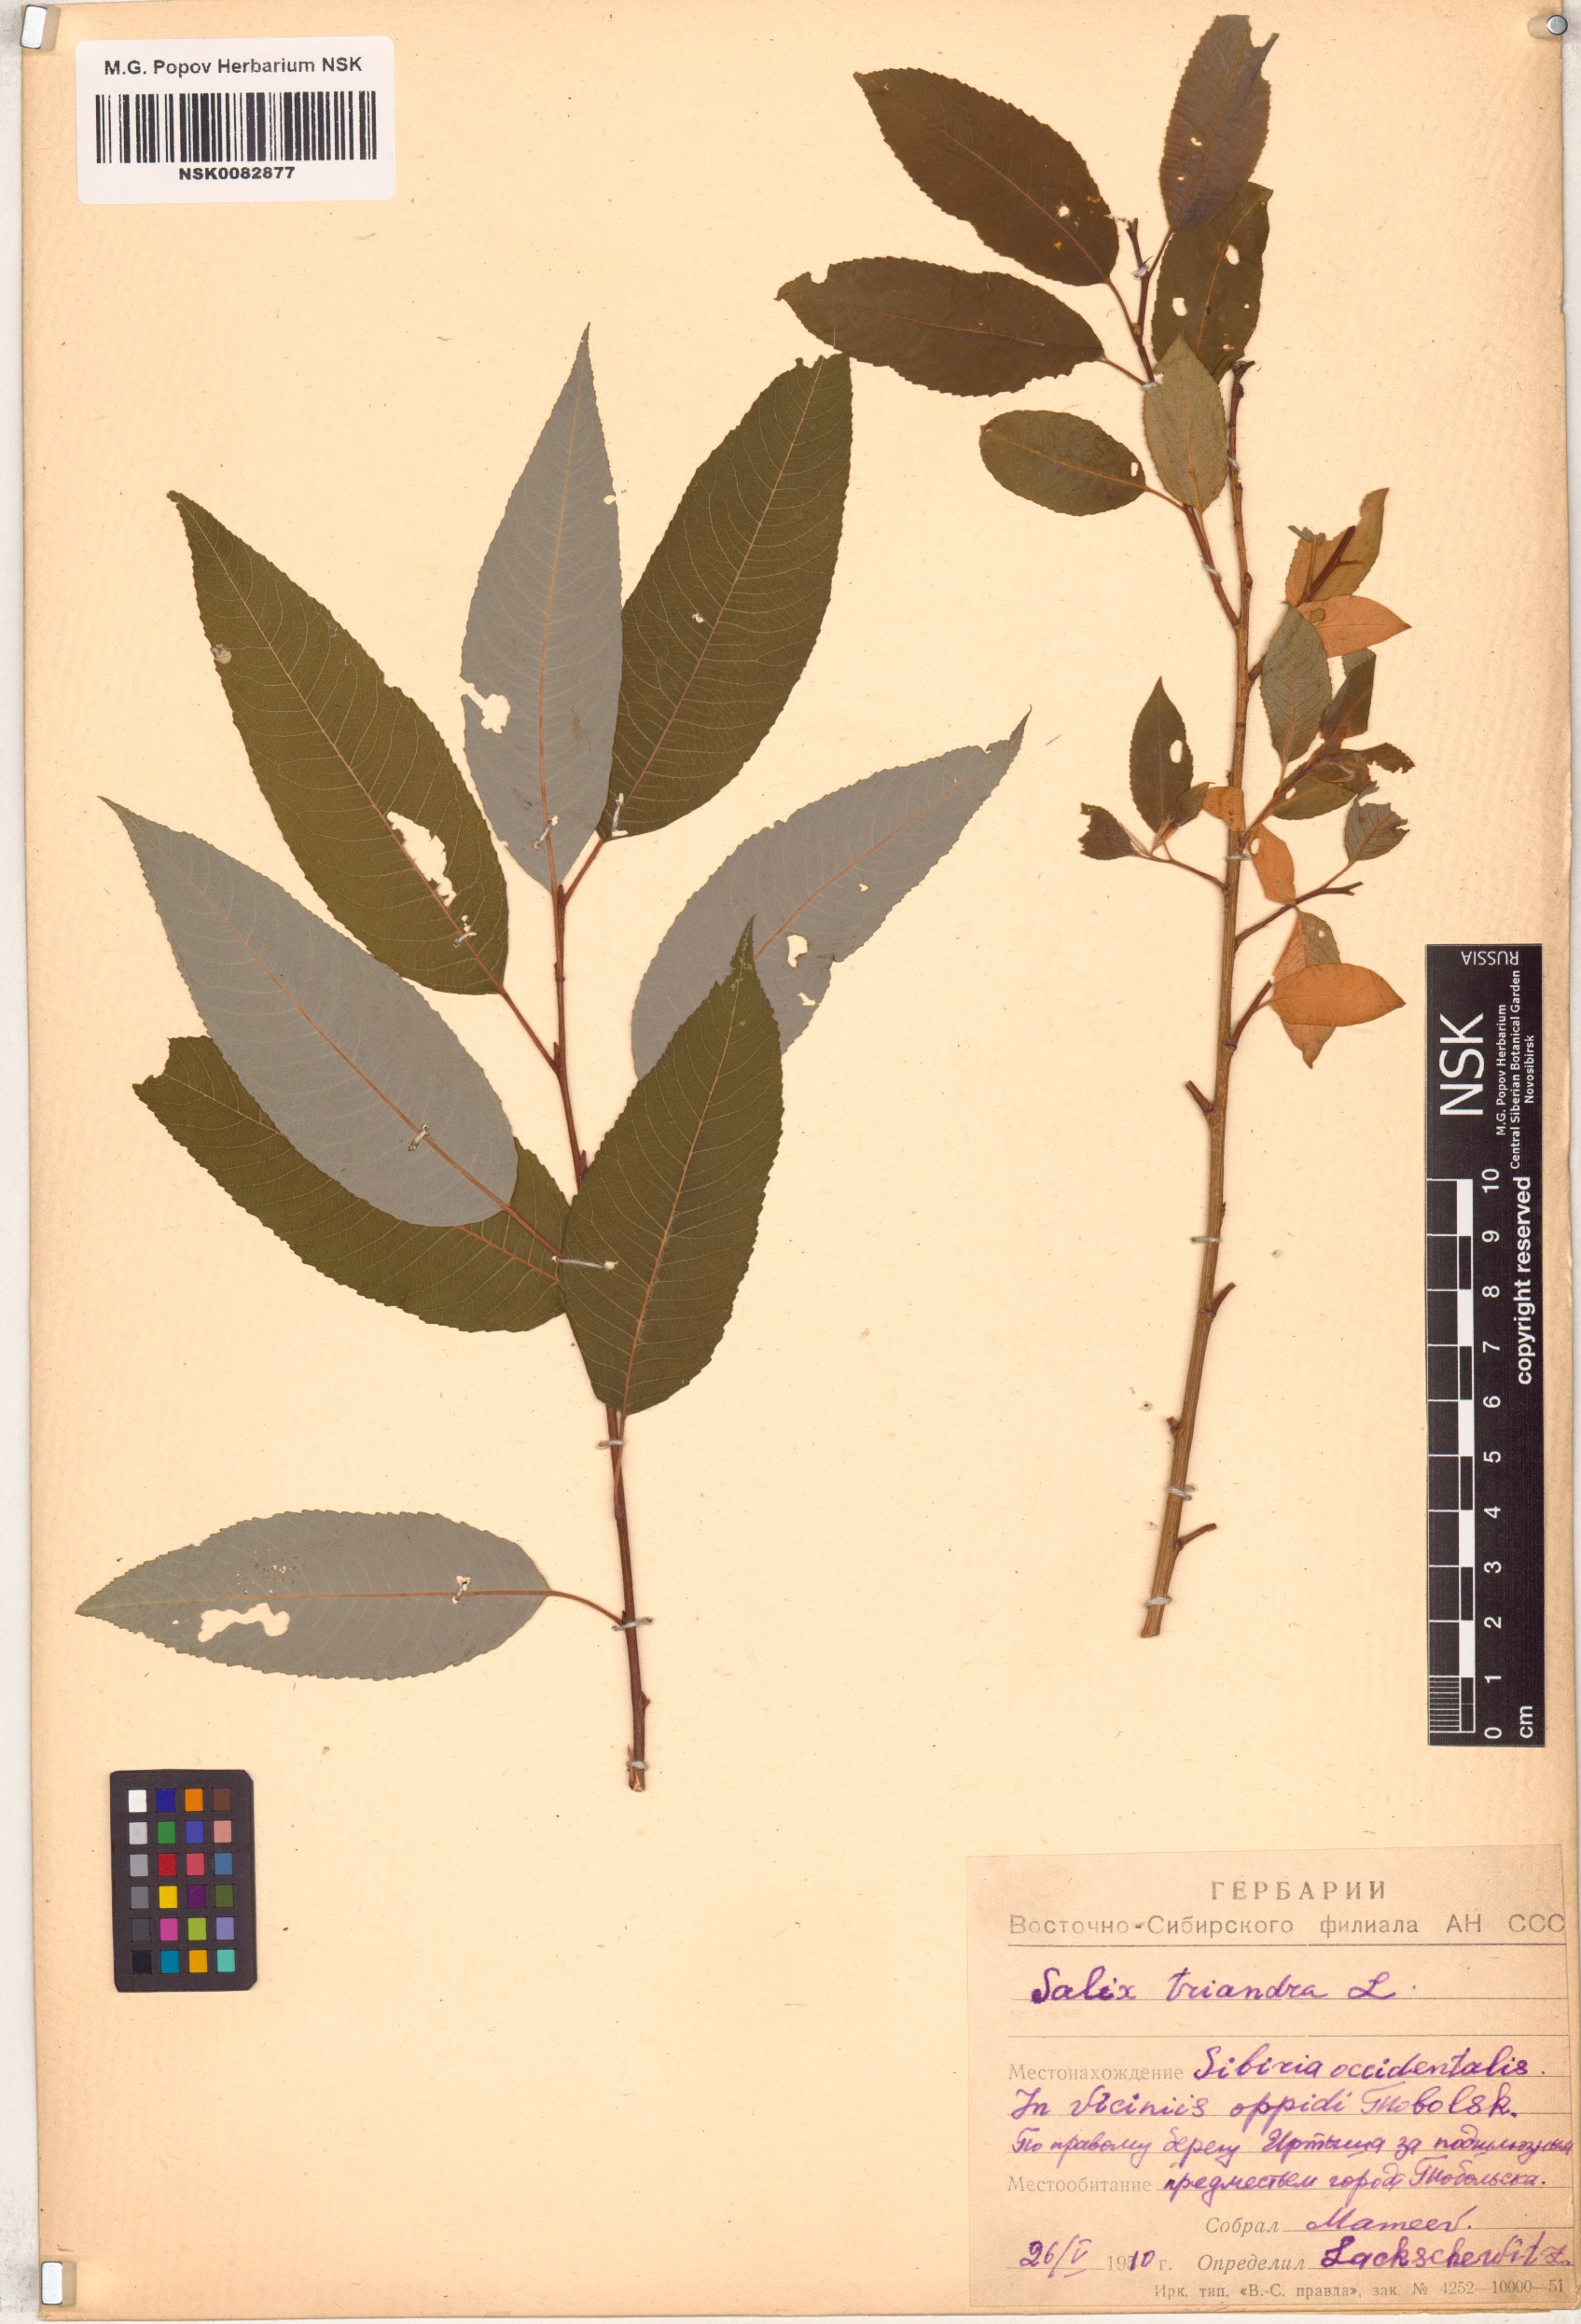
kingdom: Plantae
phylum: Tracheophyta
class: Magnoliopsida
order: Malpighiales
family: Salicaceae
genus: Salix
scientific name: Salix triandra
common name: Almond willow
